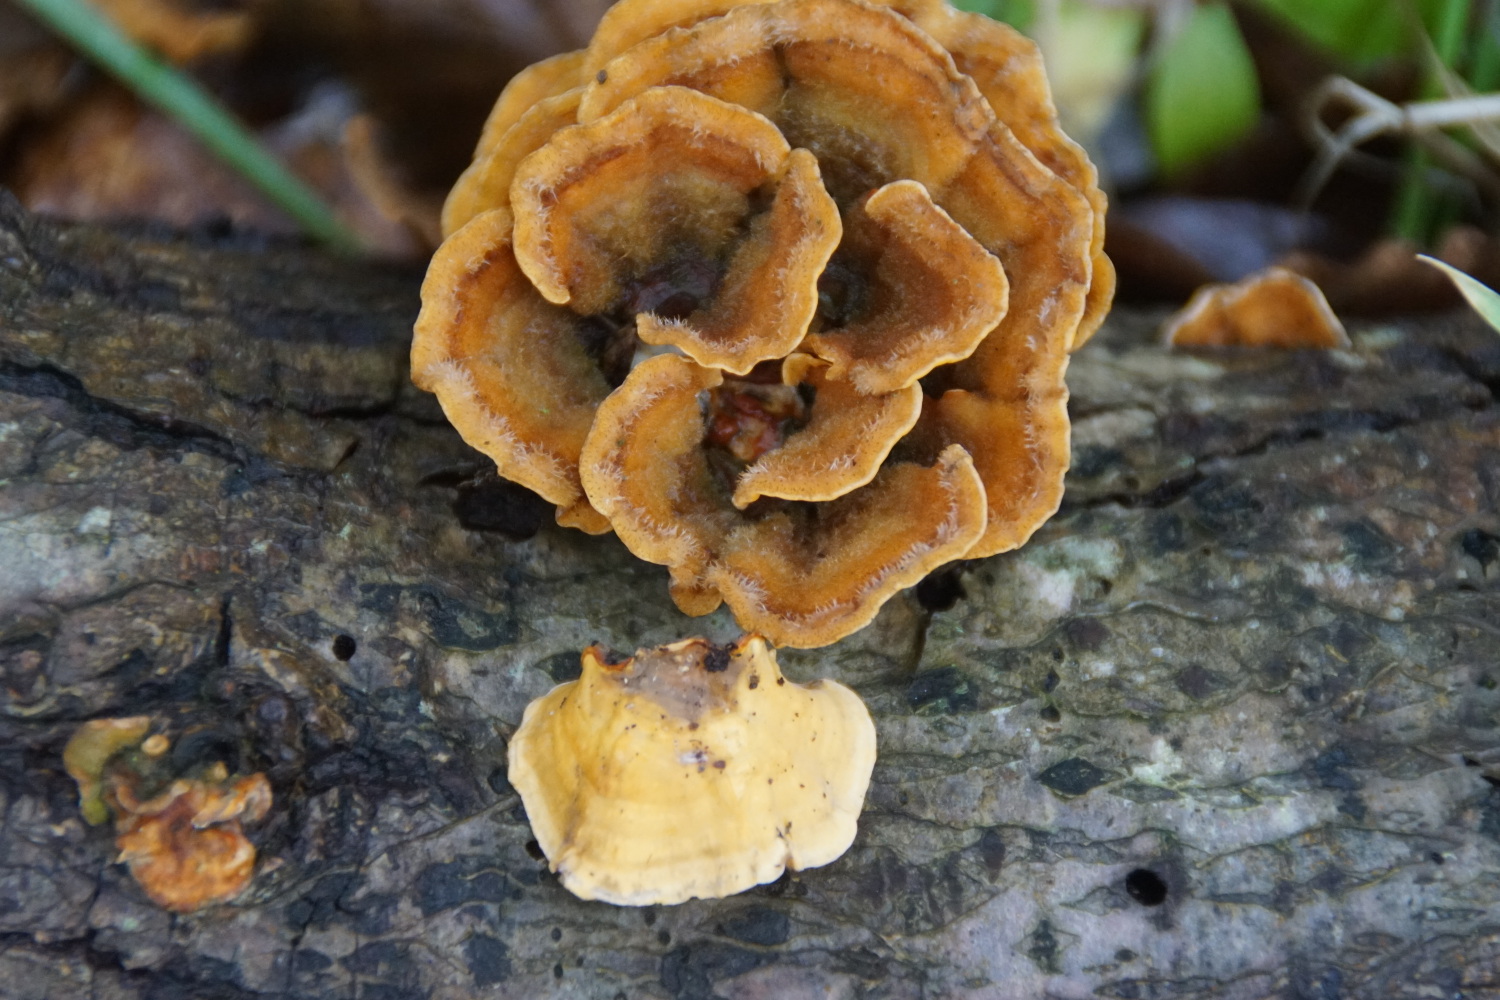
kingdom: Fungi
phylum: Basidiomycota
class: Agaricomycetes
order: Russulales
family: Stereaceae
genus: Stereum
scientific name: Stereum hirsutum
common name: håret lædersvamp
